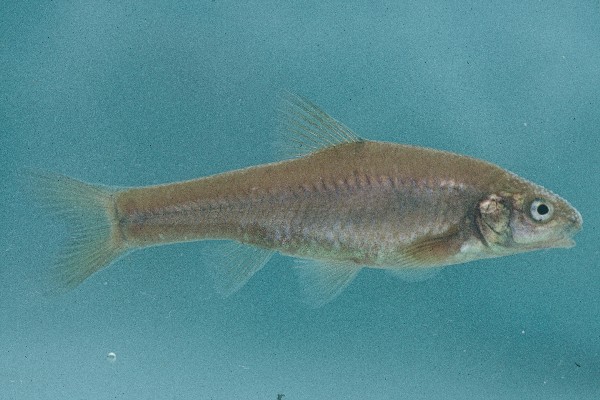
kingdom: Animalia
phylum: Chordata
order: Cypriniformes
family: Cyprinidae
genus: Enteromius
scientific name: Enteromius amatolicus
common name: Amatola barb
